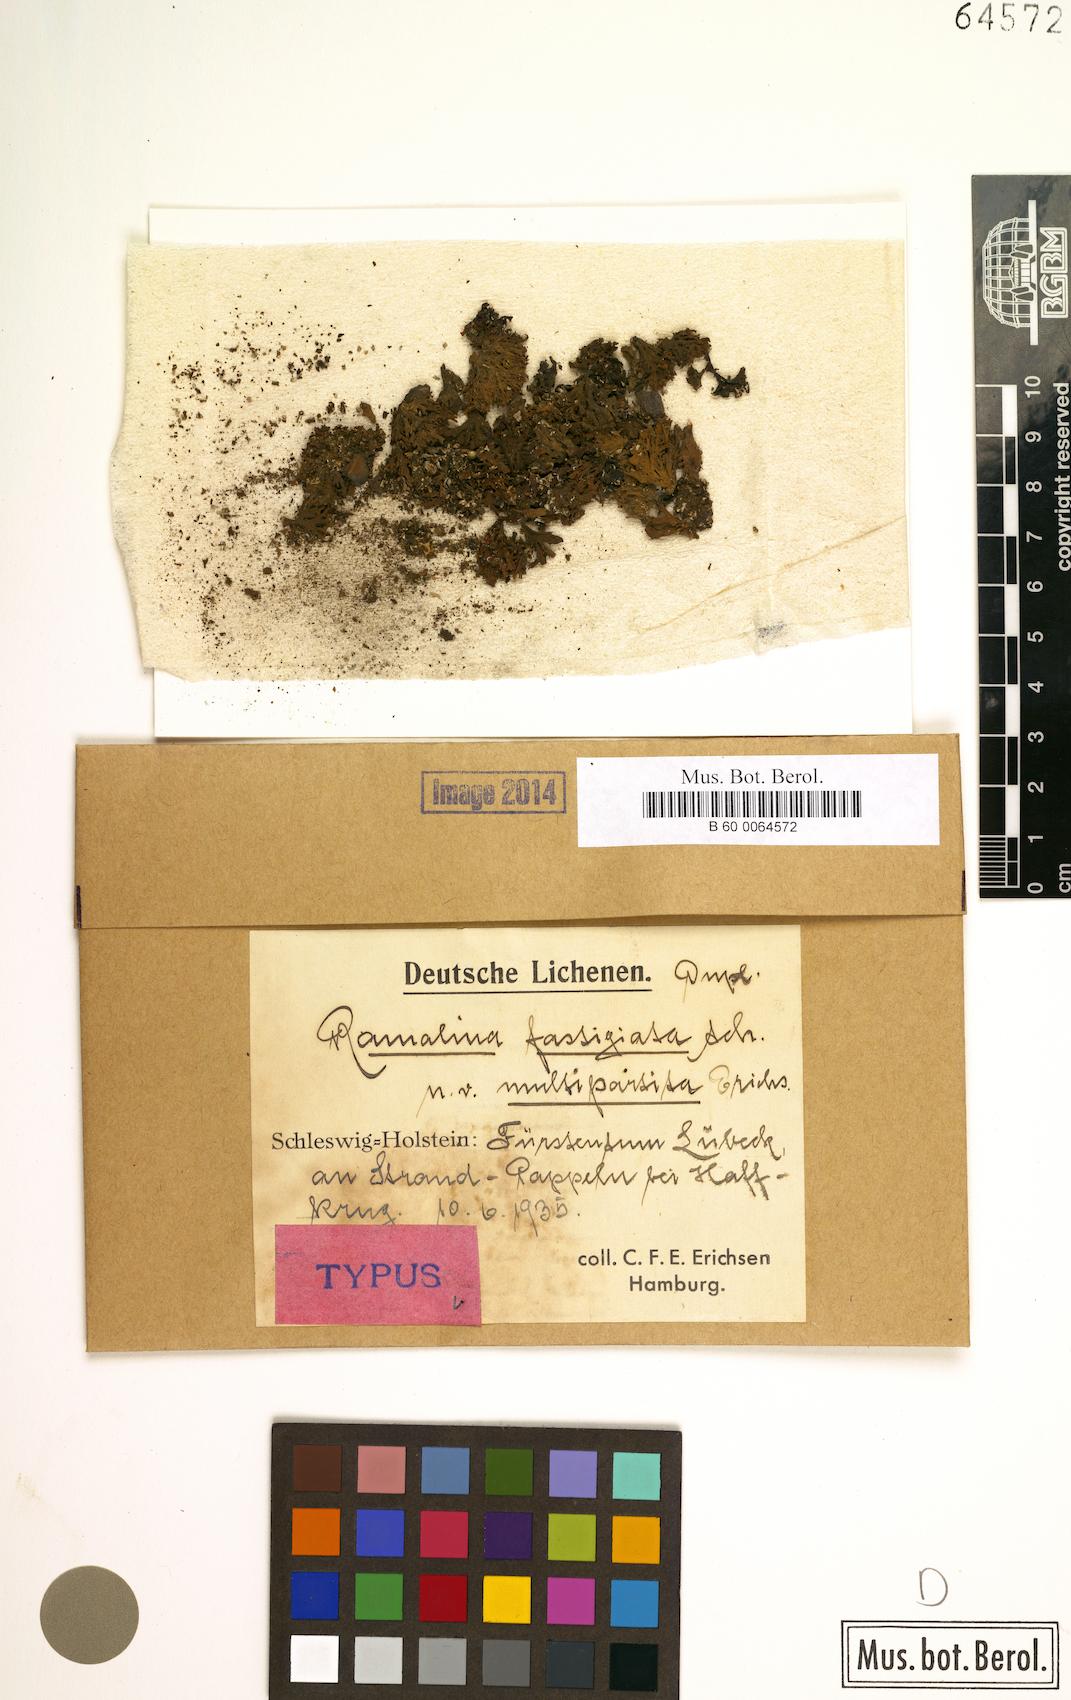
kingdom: Fungi
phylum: Ascomycota
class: Lecanoromycetes
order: Lecanorales
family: Ramalinaceae
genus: Ramalina
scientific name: Ramalina fastigiata
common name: Dotted ribbon lichen
